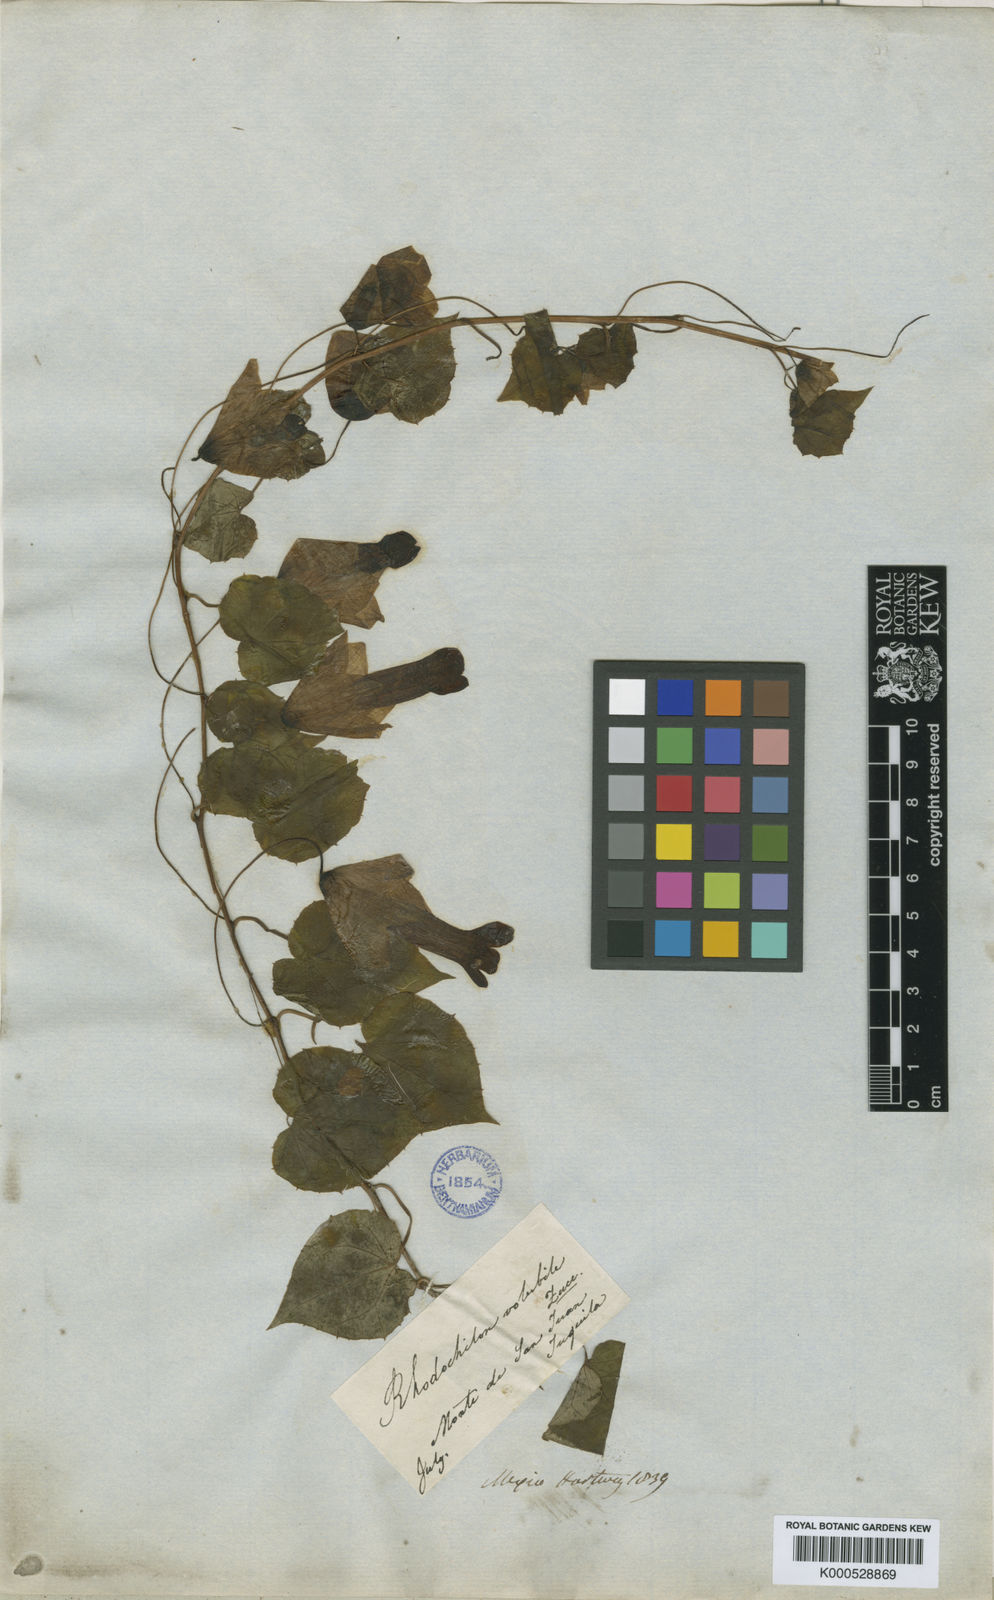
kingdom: Plantae
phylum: Tracheophyta
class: Magnoliopsida
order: Lamiales
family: Plantaginaceae
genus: Rhodochiton
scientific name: Rhodochiton atrosanguineus
